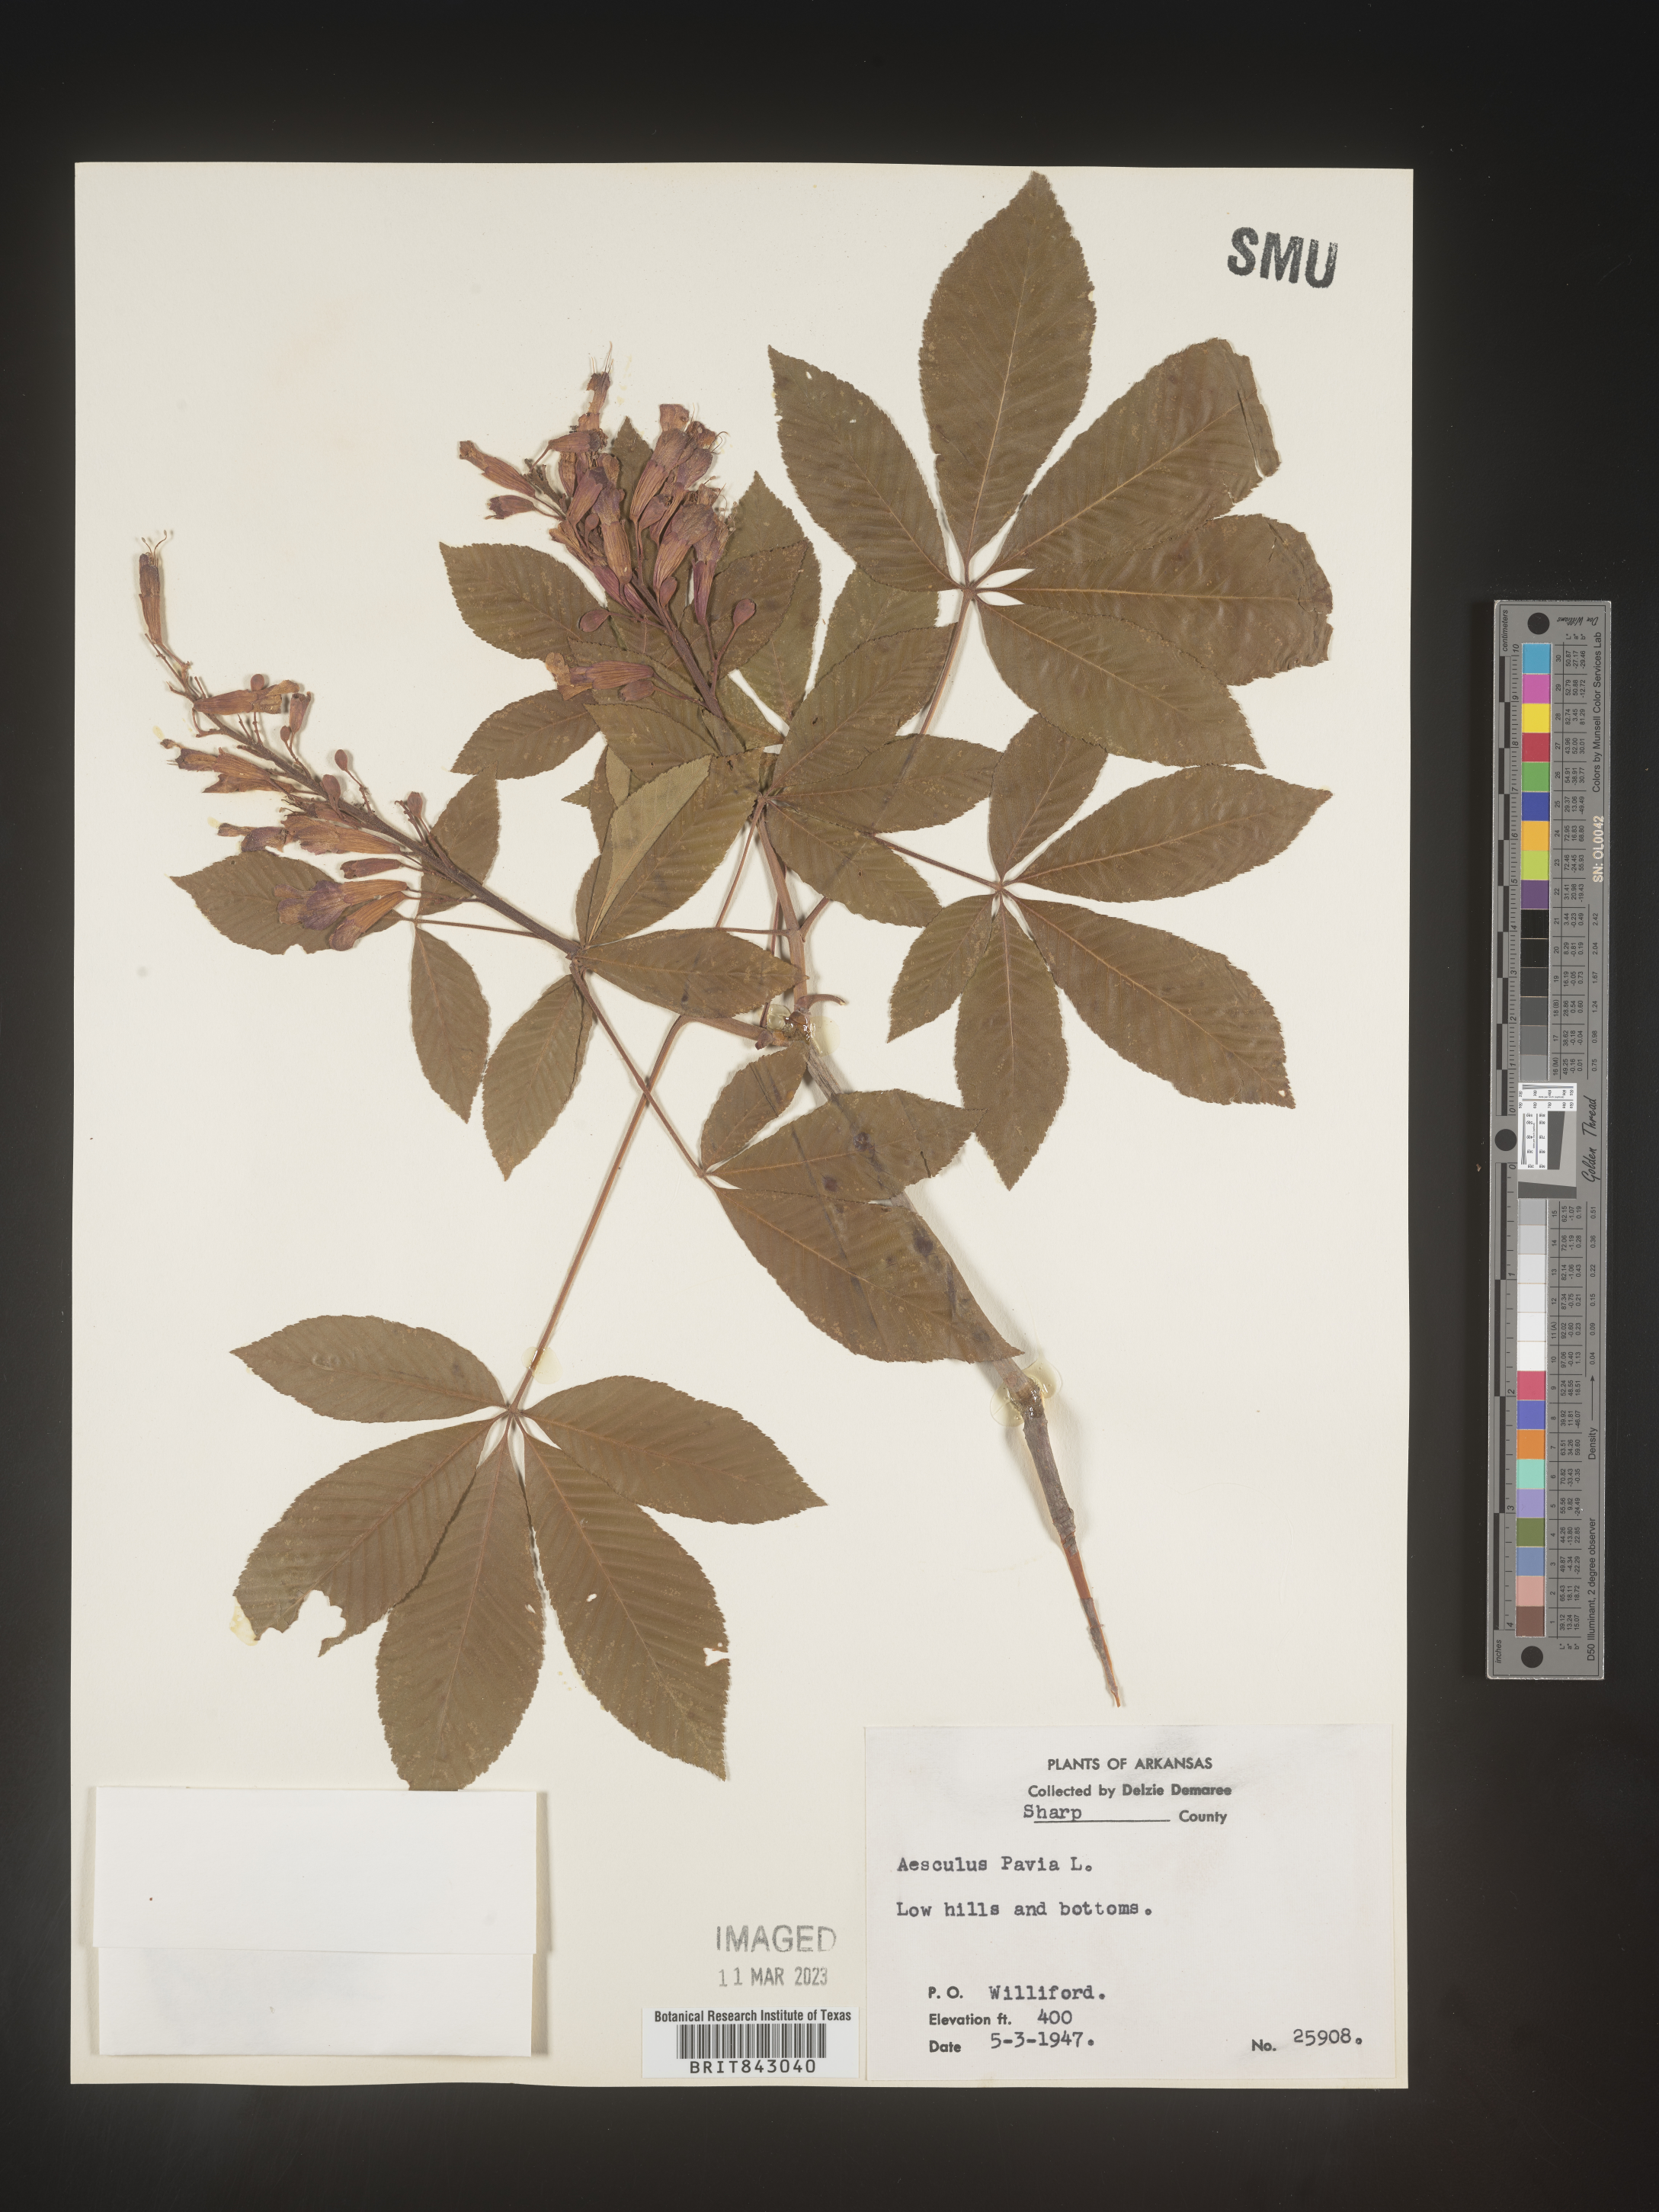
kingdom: Plantae
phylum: Tracheophyta
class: Magnoliopsida
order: Sapindales
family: Sapindaceae
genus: Aesculus
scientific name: Aesculus pavia
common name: Red buckeye
